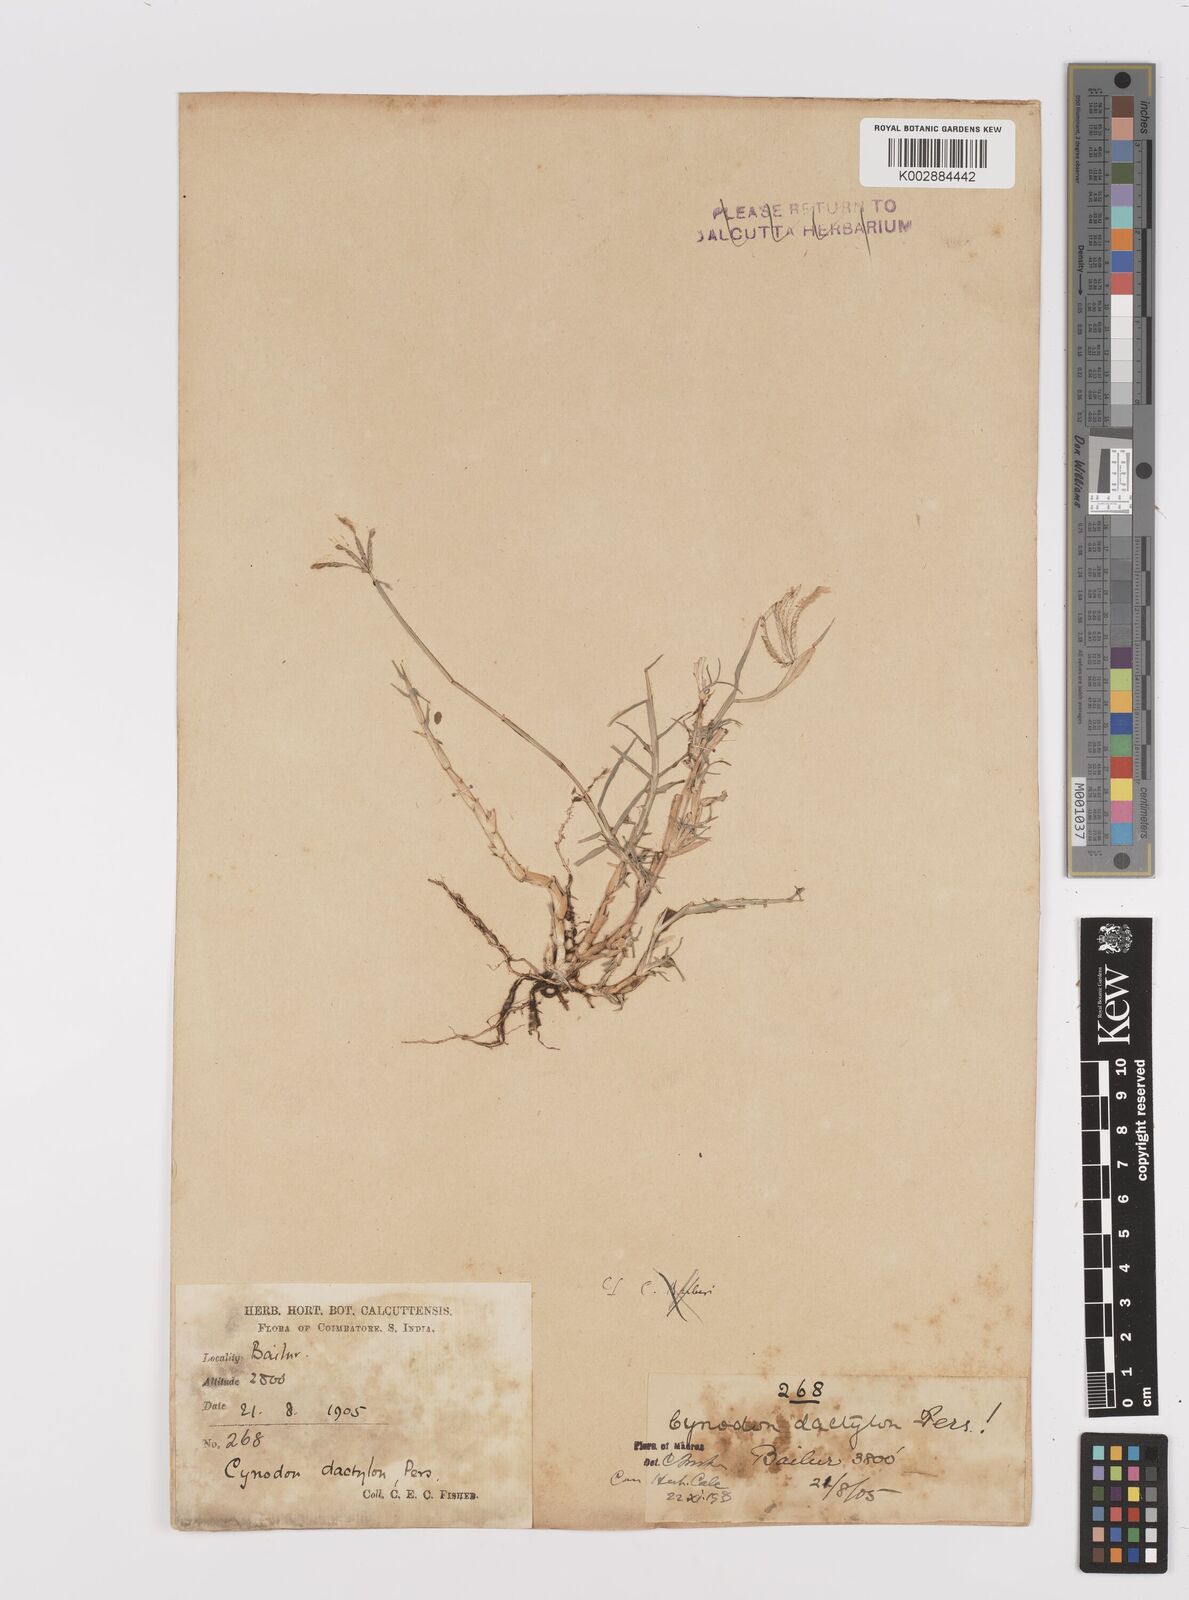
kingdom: Plantae
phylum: Tracheophyta
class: Liliopsida
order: Poales
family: Poaceae
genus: Cynodon
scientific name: Cynodon dactylon
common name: Bermuda grass
